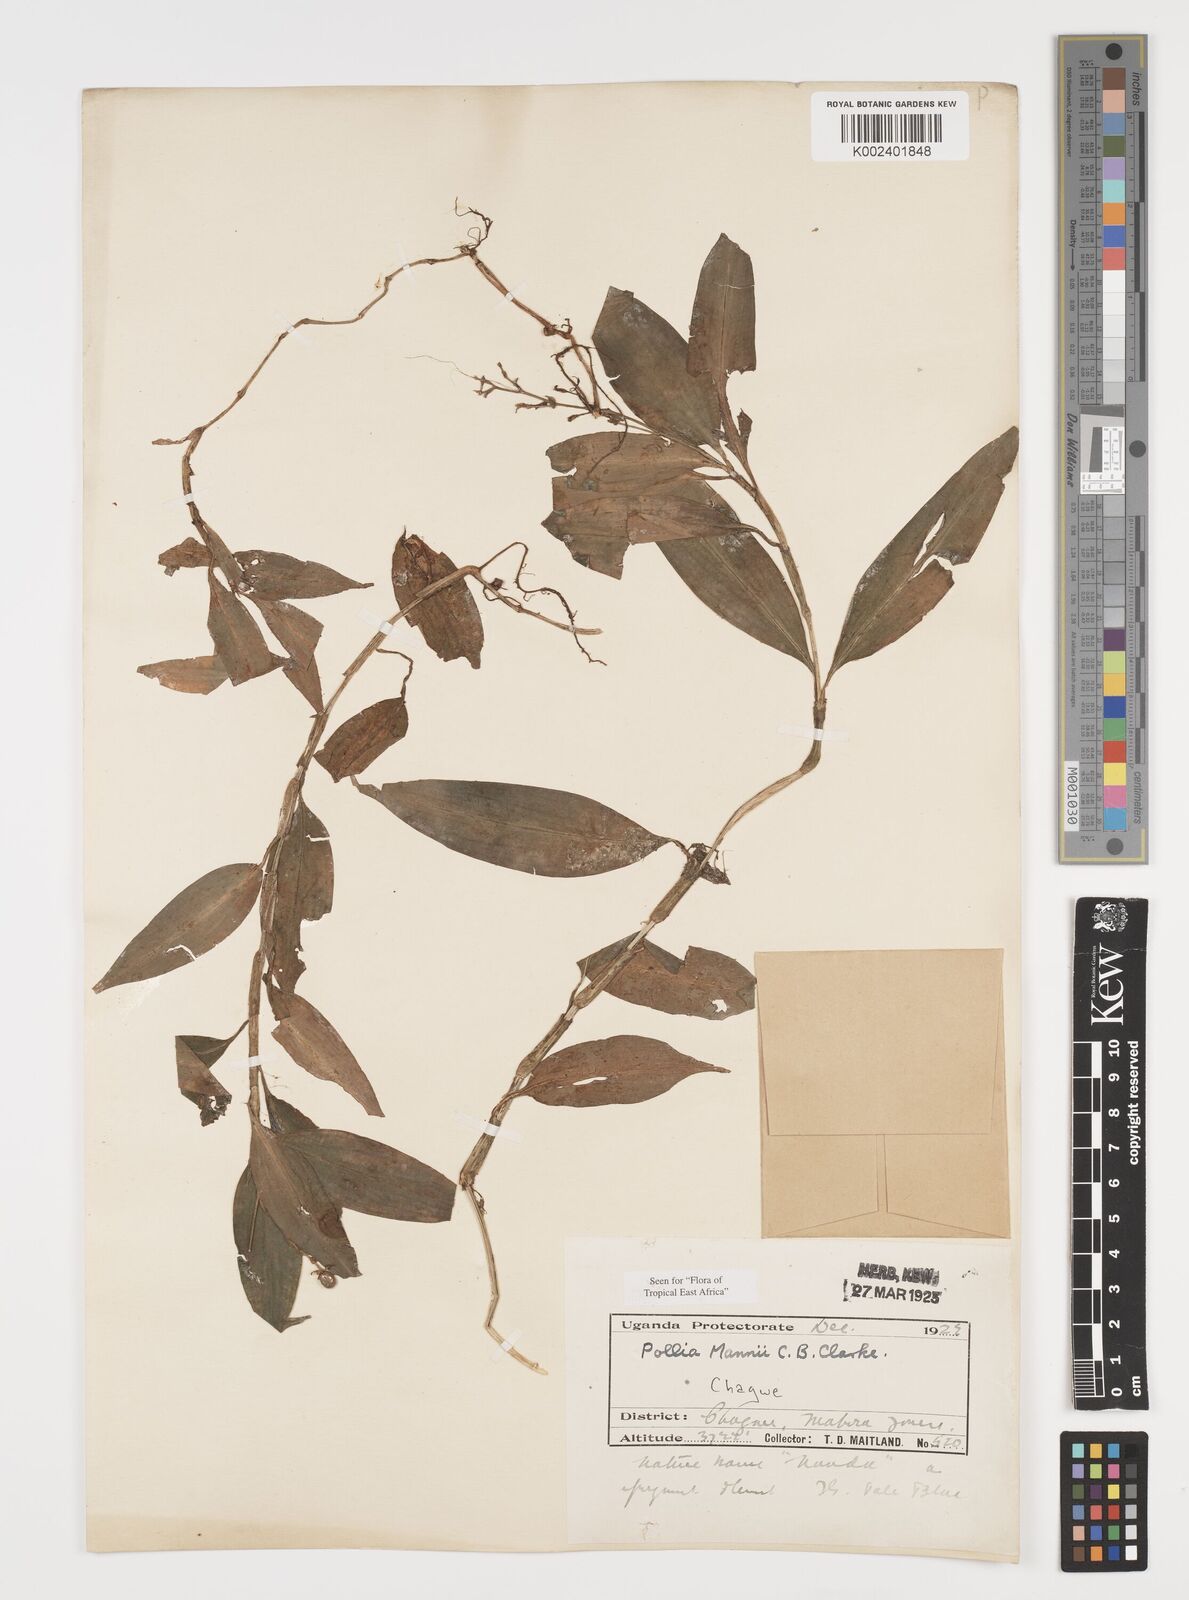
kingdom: Plantae
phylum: Tracheophyta
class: Liliopsida
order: Commelinales
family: Commelinaceae
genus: Pollia
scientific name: Pollia mannii
